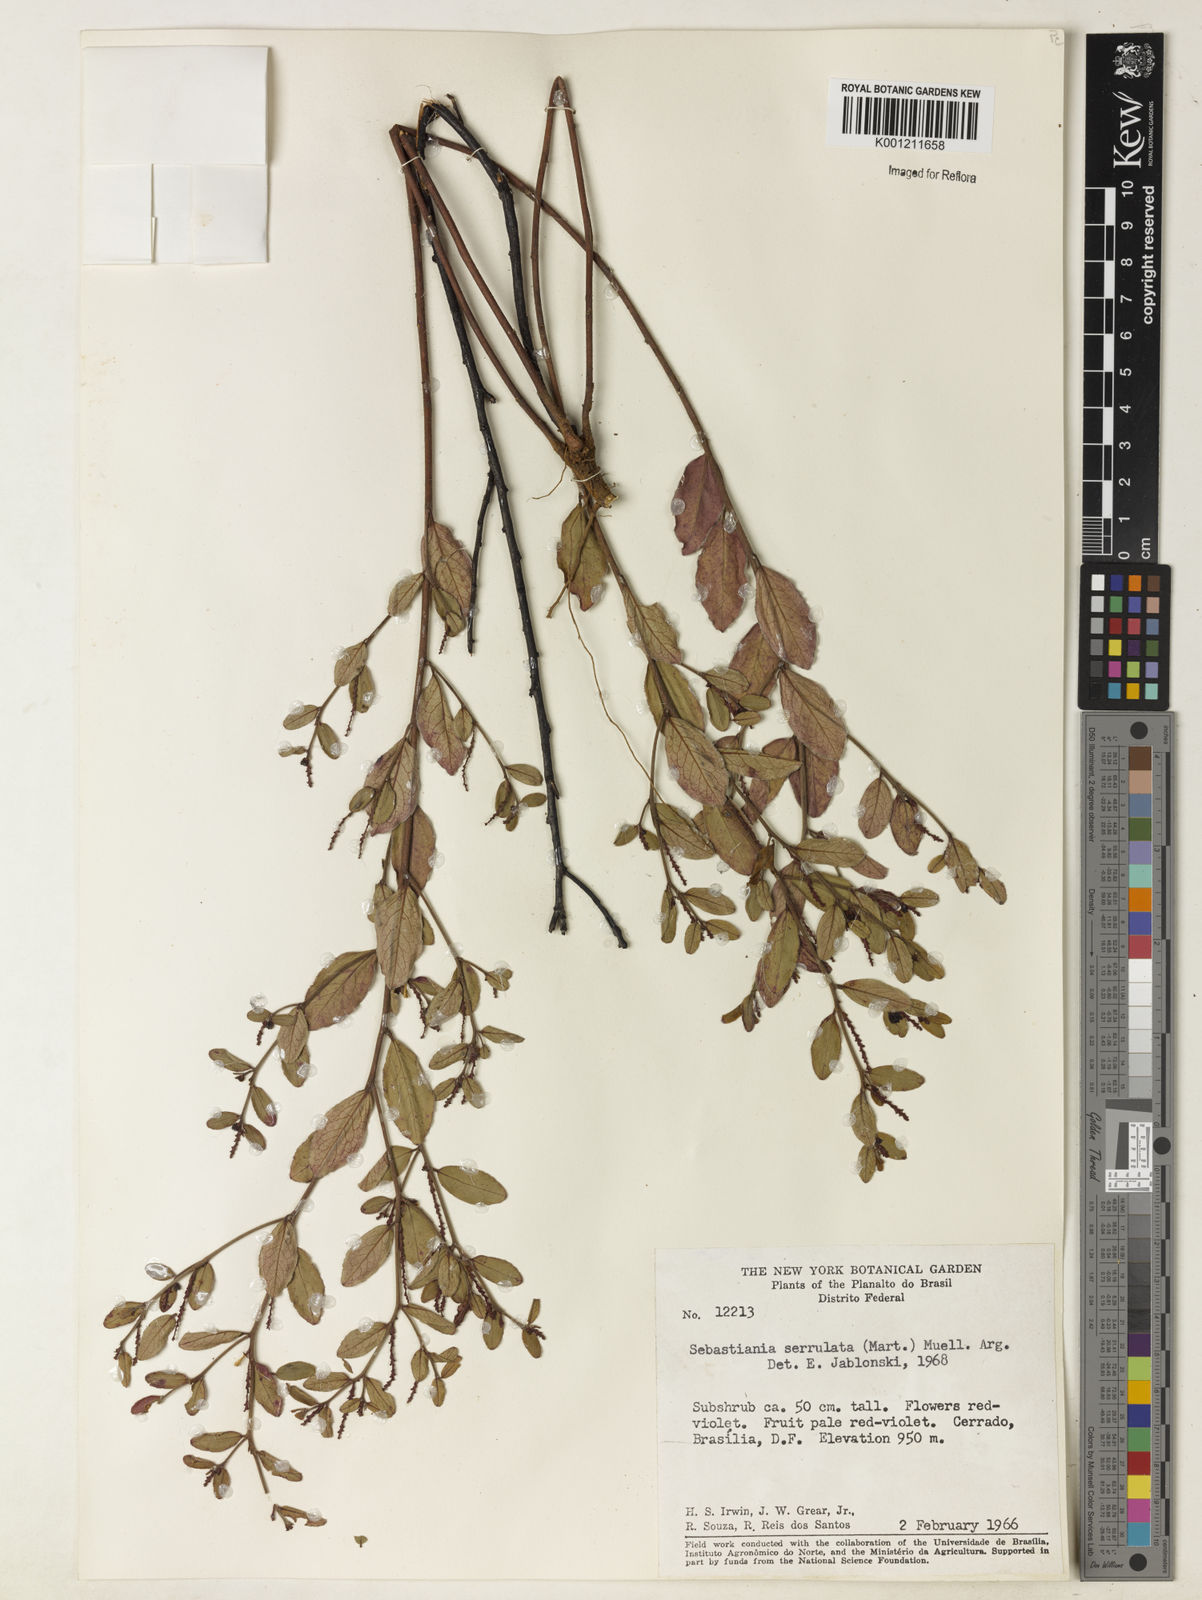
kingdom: Plantae
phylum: Tracheophyta
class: Magnoliopsida
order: Malpighiales
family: Euphorbiaceae
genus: Microstachys
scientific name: Microstachys
